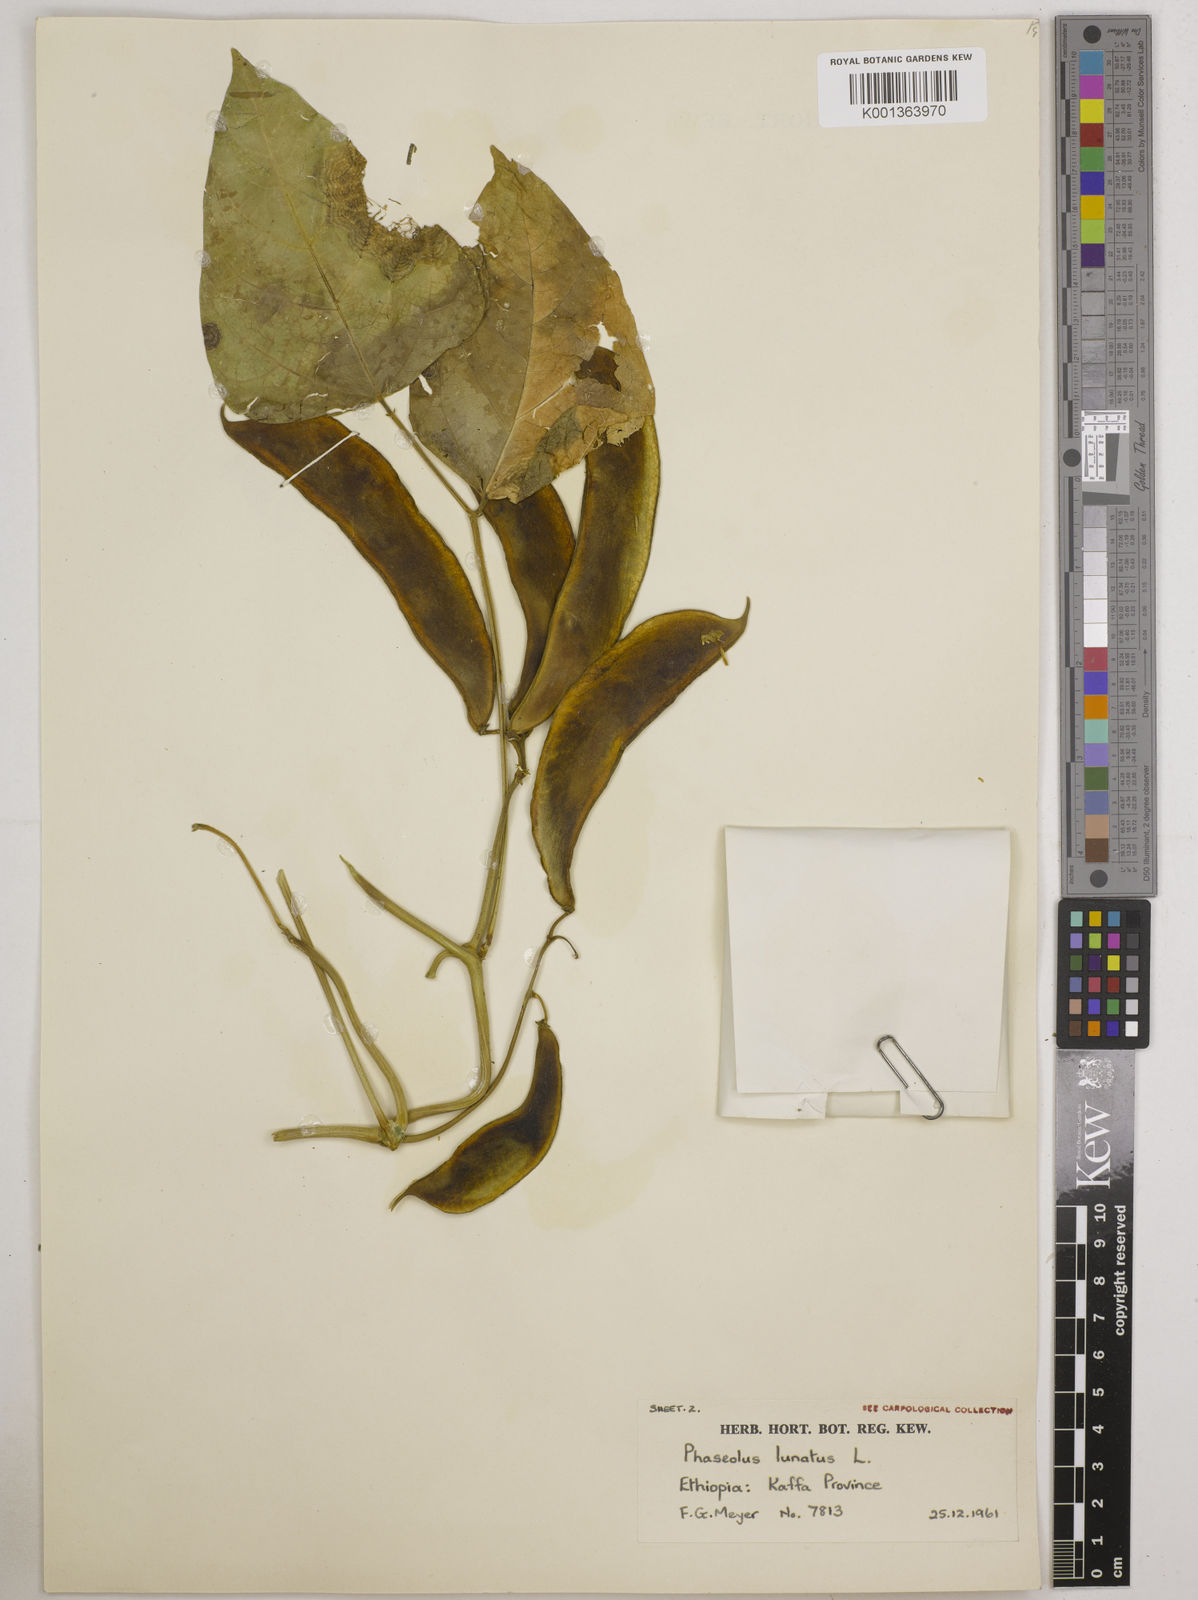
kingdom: Plantae
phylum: Tracheophyta
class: Magnoliopsida
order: Fabales
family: Fabaceae
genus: Phaseolus
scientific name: Phaseolus lunatus
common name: Sieva bean
